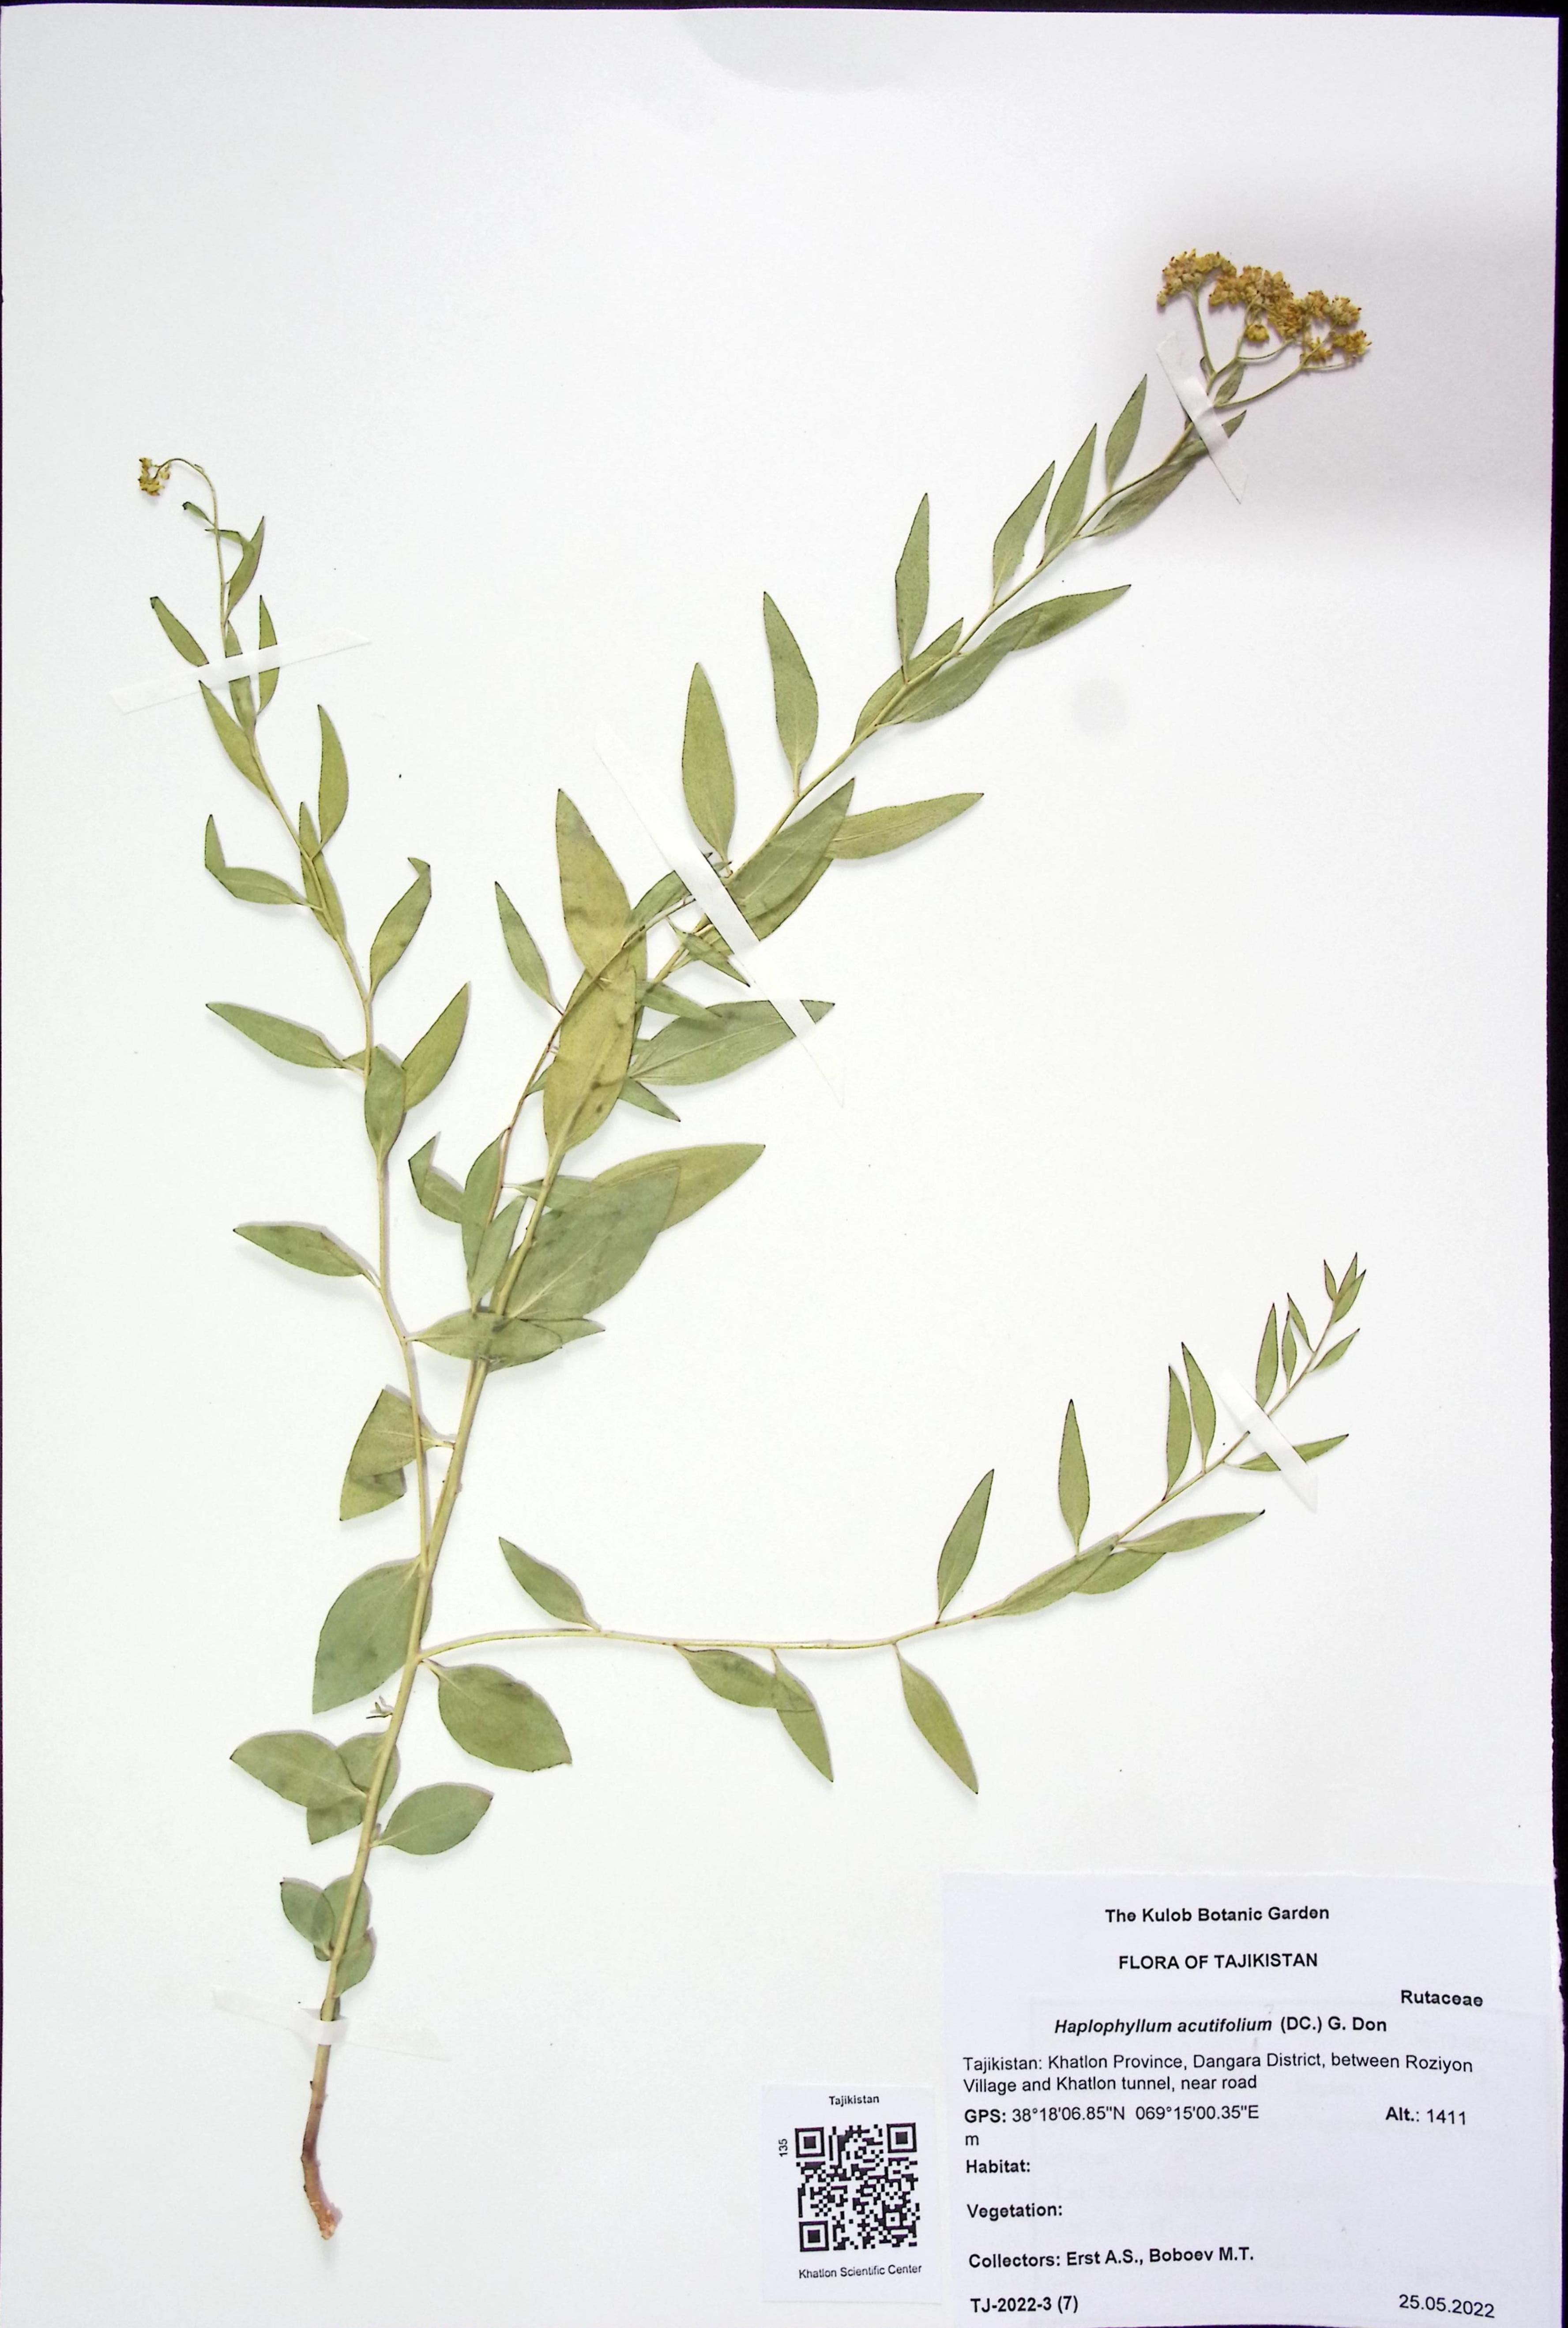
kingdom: Plantae
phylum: Tracheophyta
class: Magnoliopsida
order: Sapindales
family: Rutaceae
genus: Haplophyllum
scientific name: Haplophyllum acutifolium
